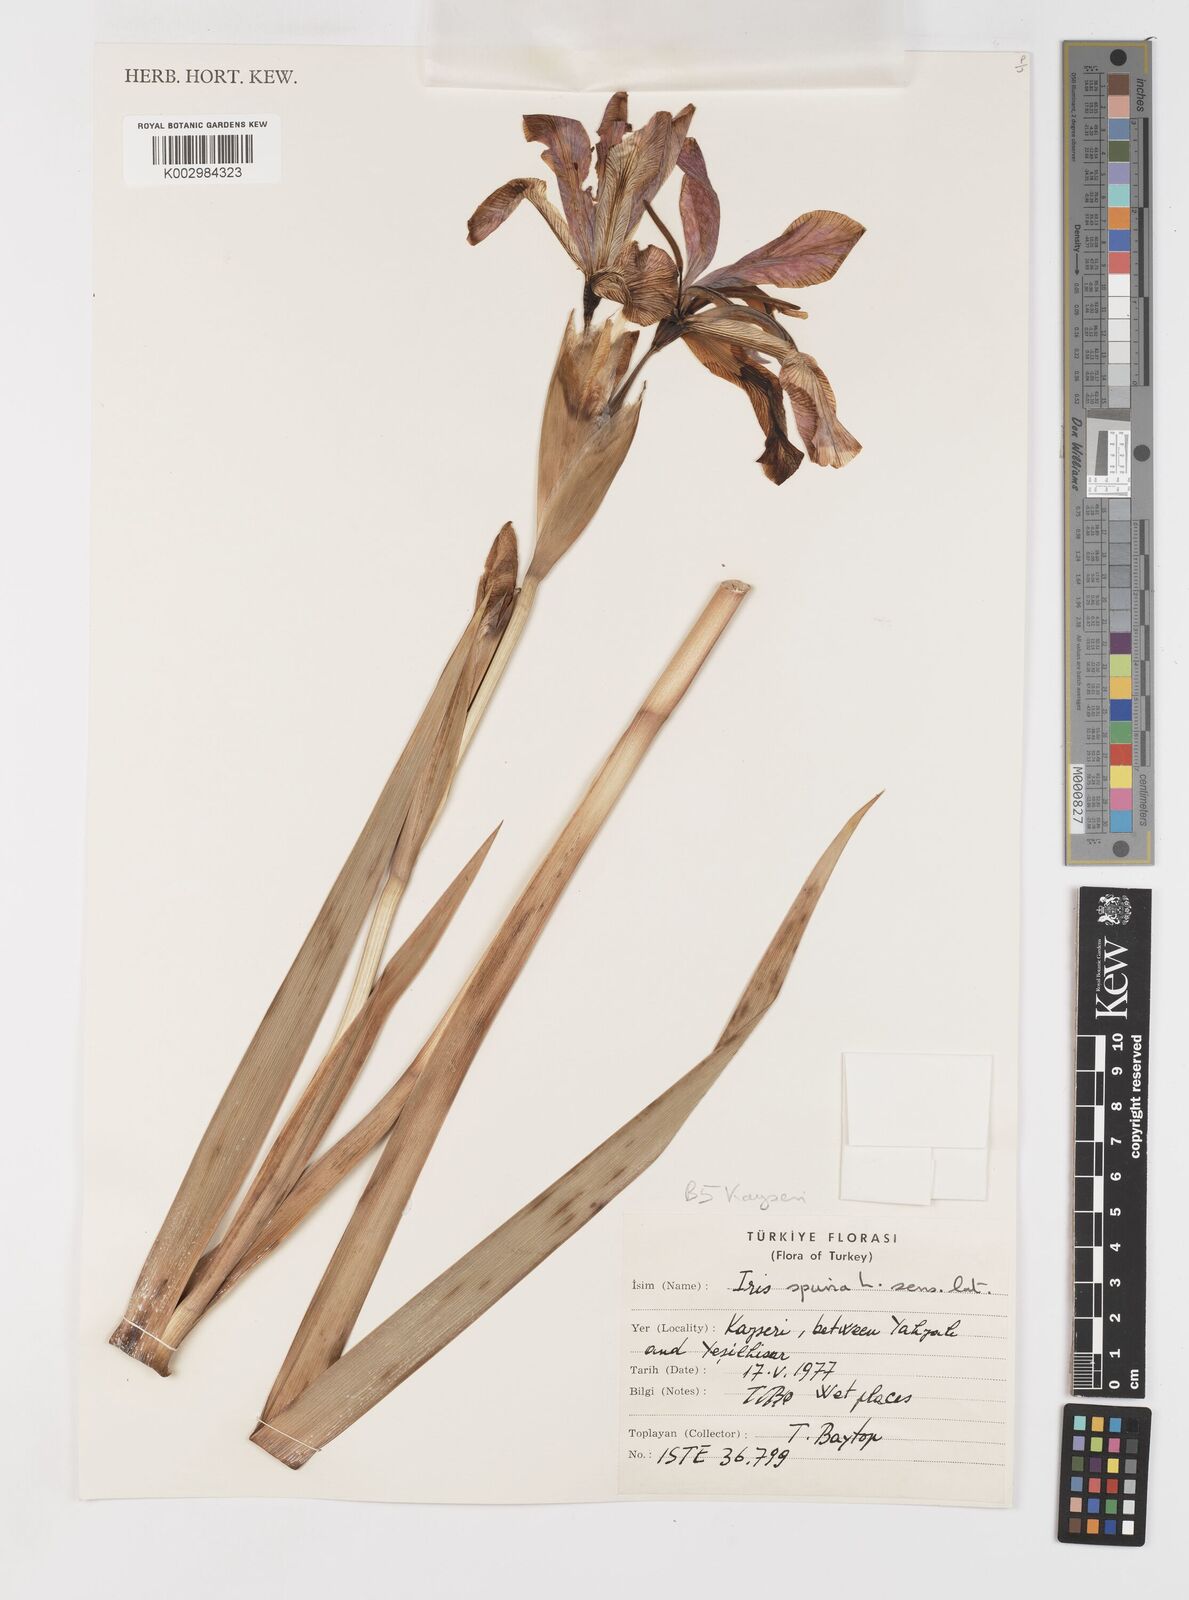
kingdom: Plantae
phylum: Tracheophyta
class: Liliopsida
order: Asparagales
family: Iridaceae
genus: Iris
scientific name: Iris spuria
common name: Blue iris
